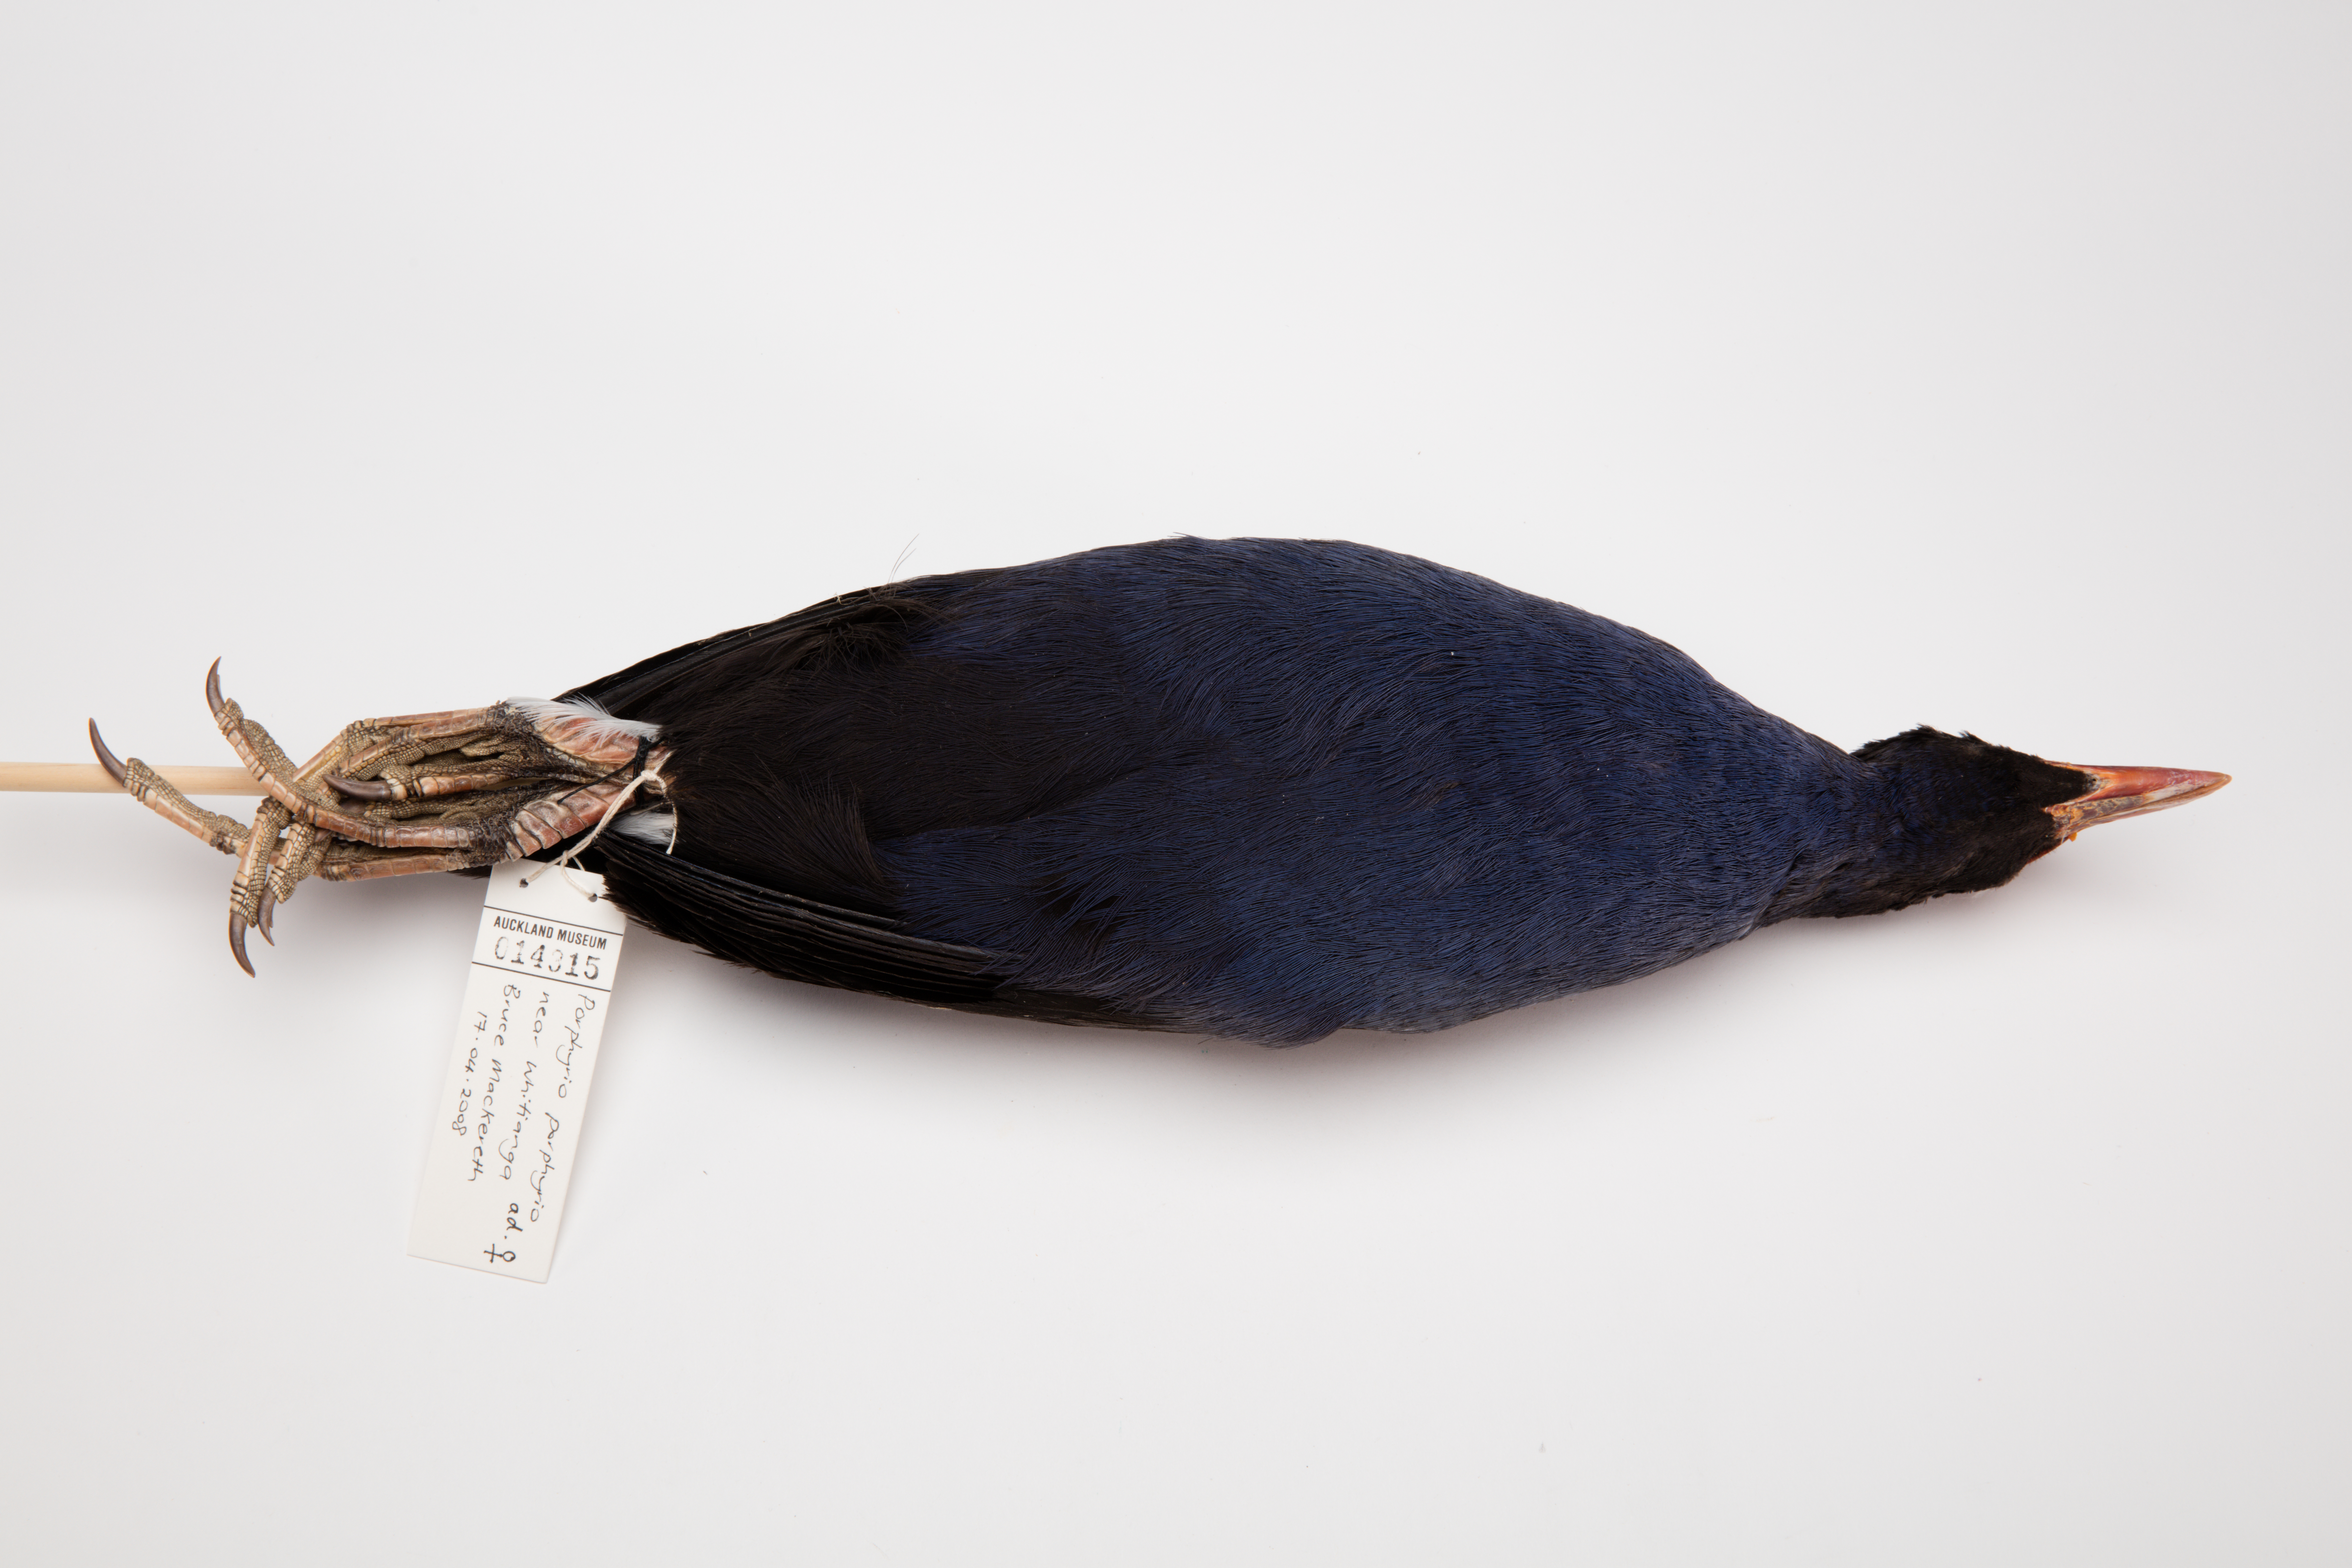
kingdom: Animalia
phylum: Chordata
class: Aves
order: Gruiformes
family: Rallidae
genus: Porphyrio
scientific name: Porphyrio melanotus
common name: Australasian swamphen
